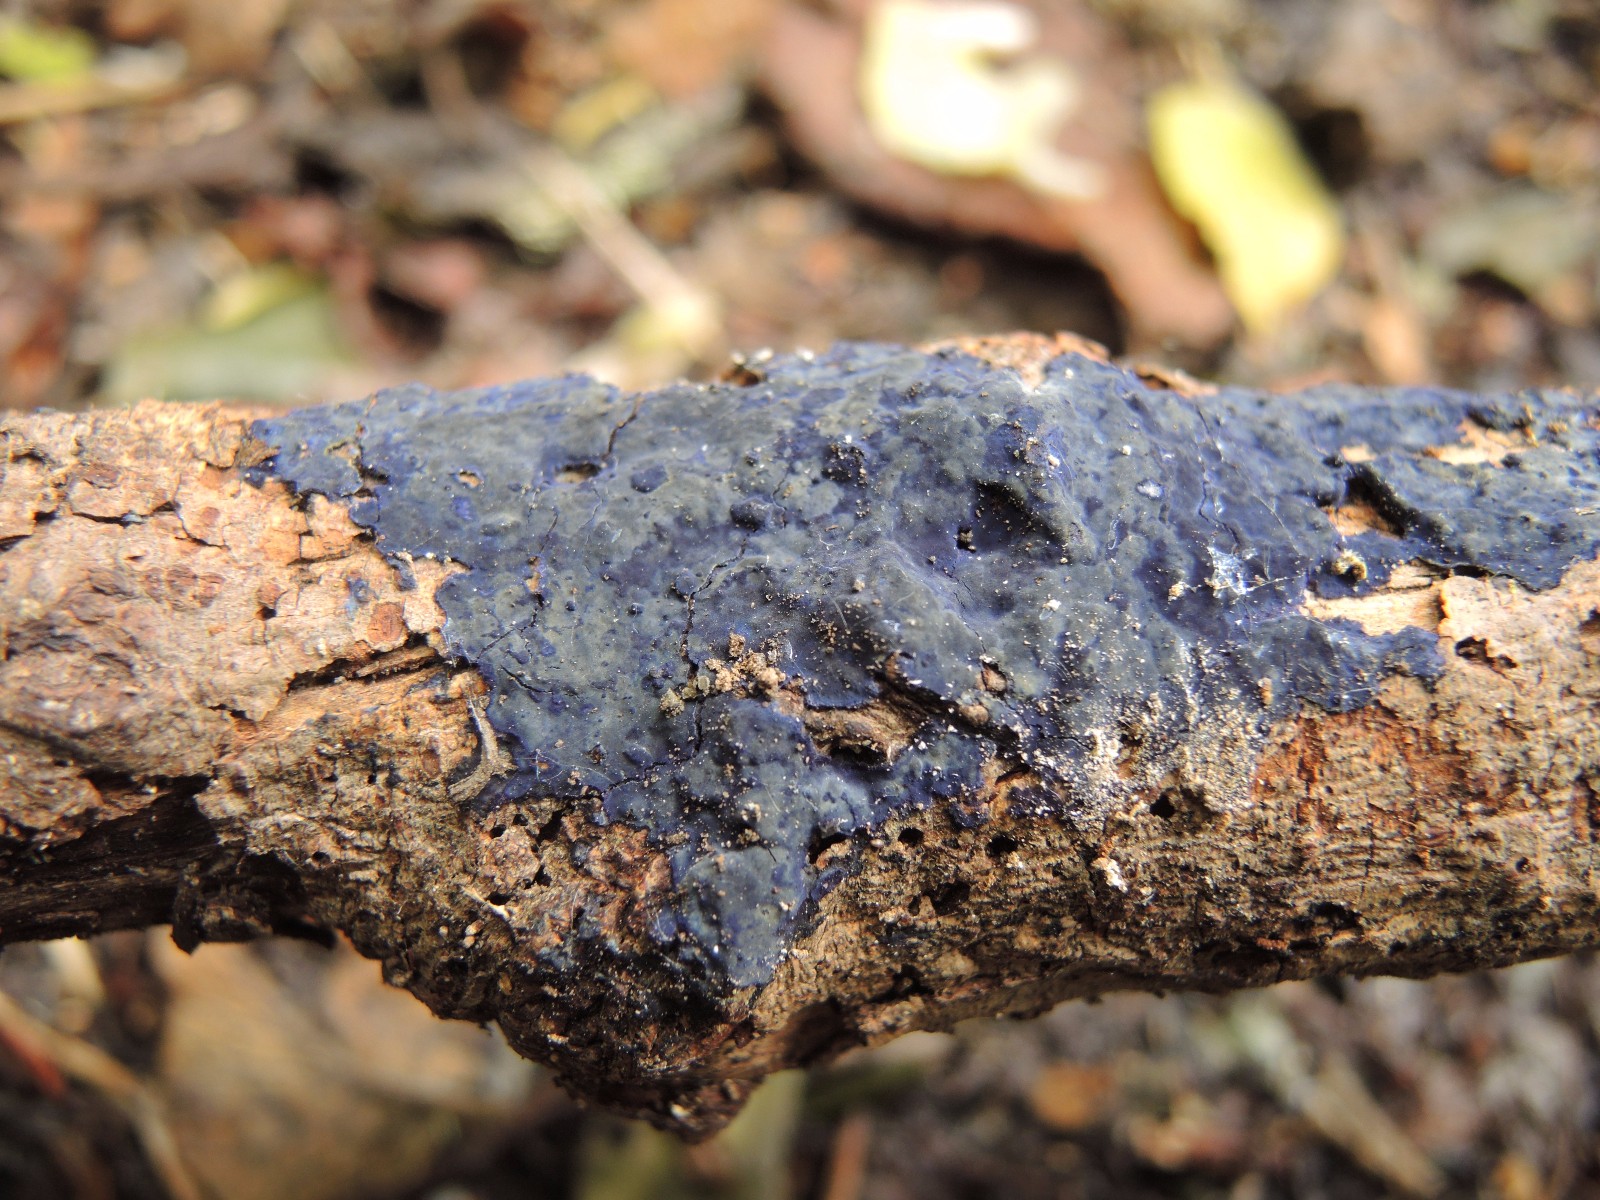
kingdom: Fungi
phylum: Basidiomycota
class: Agaricomycetes
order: Polyporales
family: Phanerochaetaceae
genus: Terana
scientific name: Terana caerulea
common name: indigoskorpe
